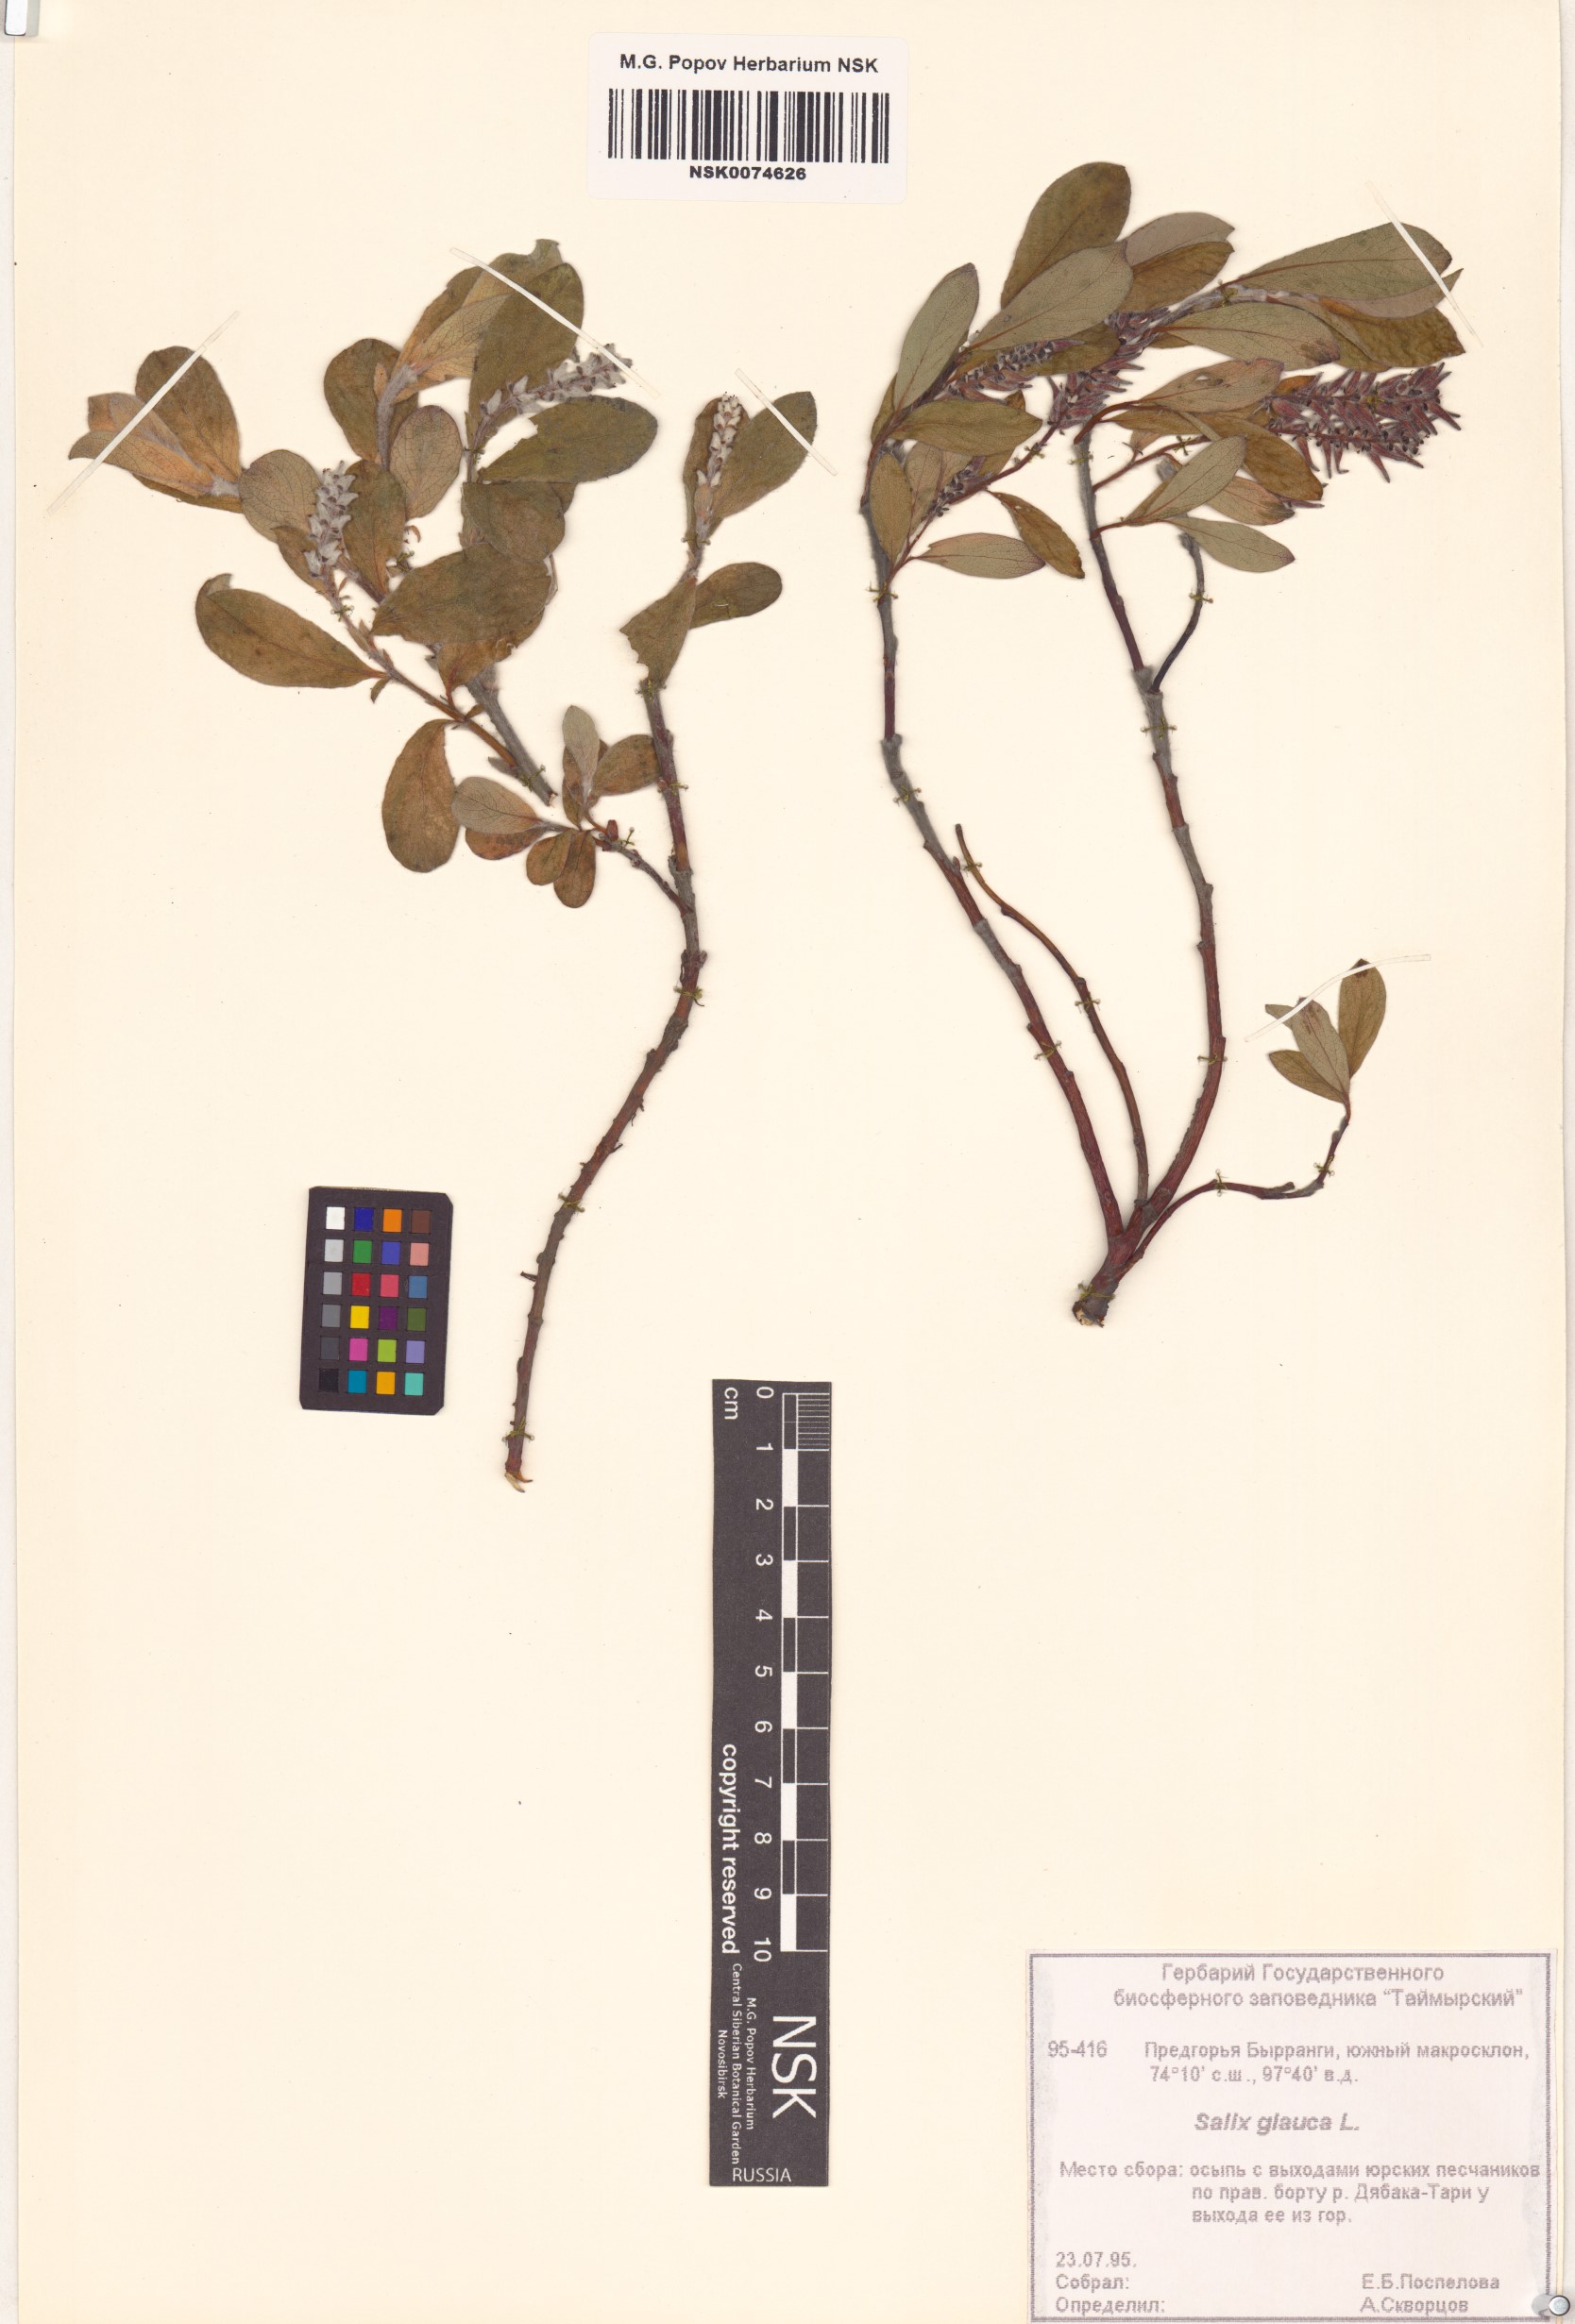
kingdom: Plantae
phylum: Tracheophyta
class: Magnoliopsida
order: Malpighiales
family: Salicaceae
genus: Salix
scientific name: Salix glauca
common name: Glaucous willow
